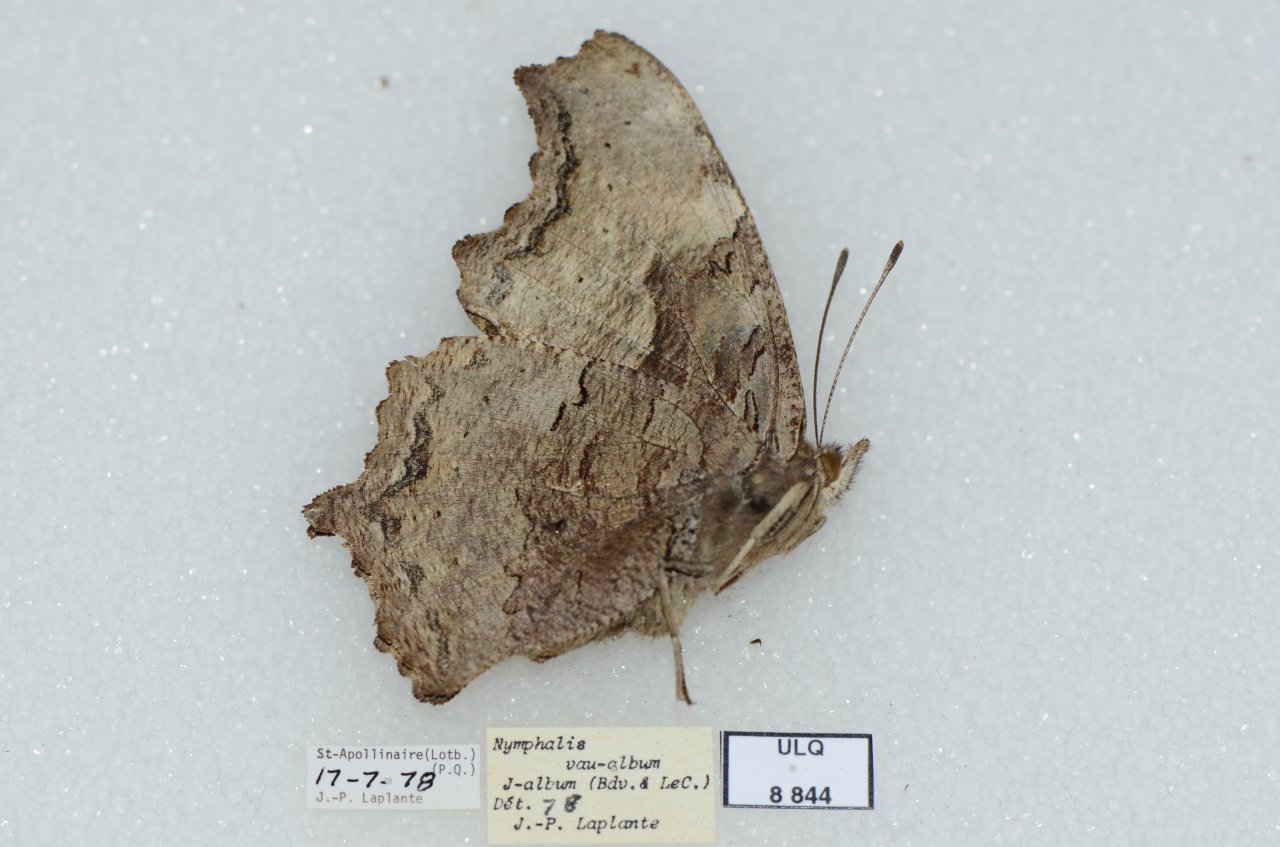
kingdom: Animalia
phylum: Arthropoda
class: Insecta
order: Lepidoptera
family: Nymphalidae
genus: Polygonia
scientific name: Polygonia vaualbum
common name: Compton Tortoiseshell
